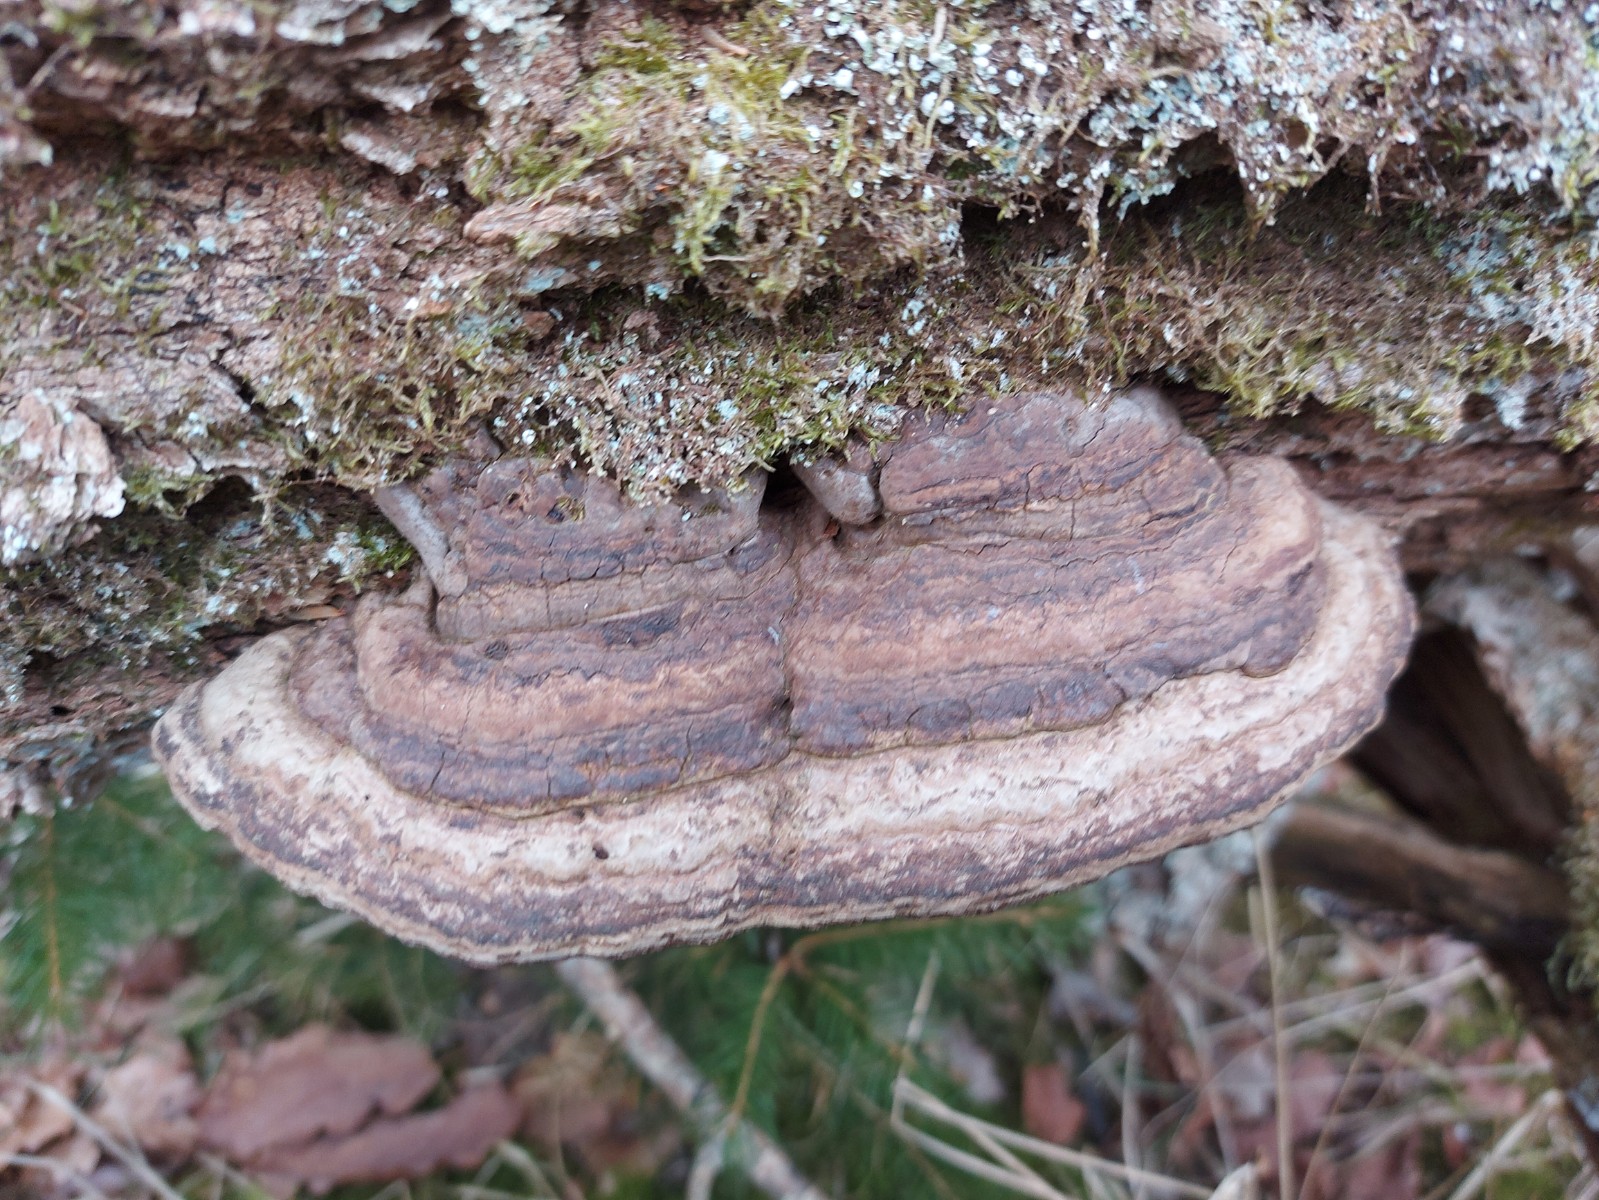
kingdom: Fungi
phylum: Basidiomycota
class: Agaricomycetes
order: Polyporales
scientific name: Polyporales
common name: poresvampordenen
